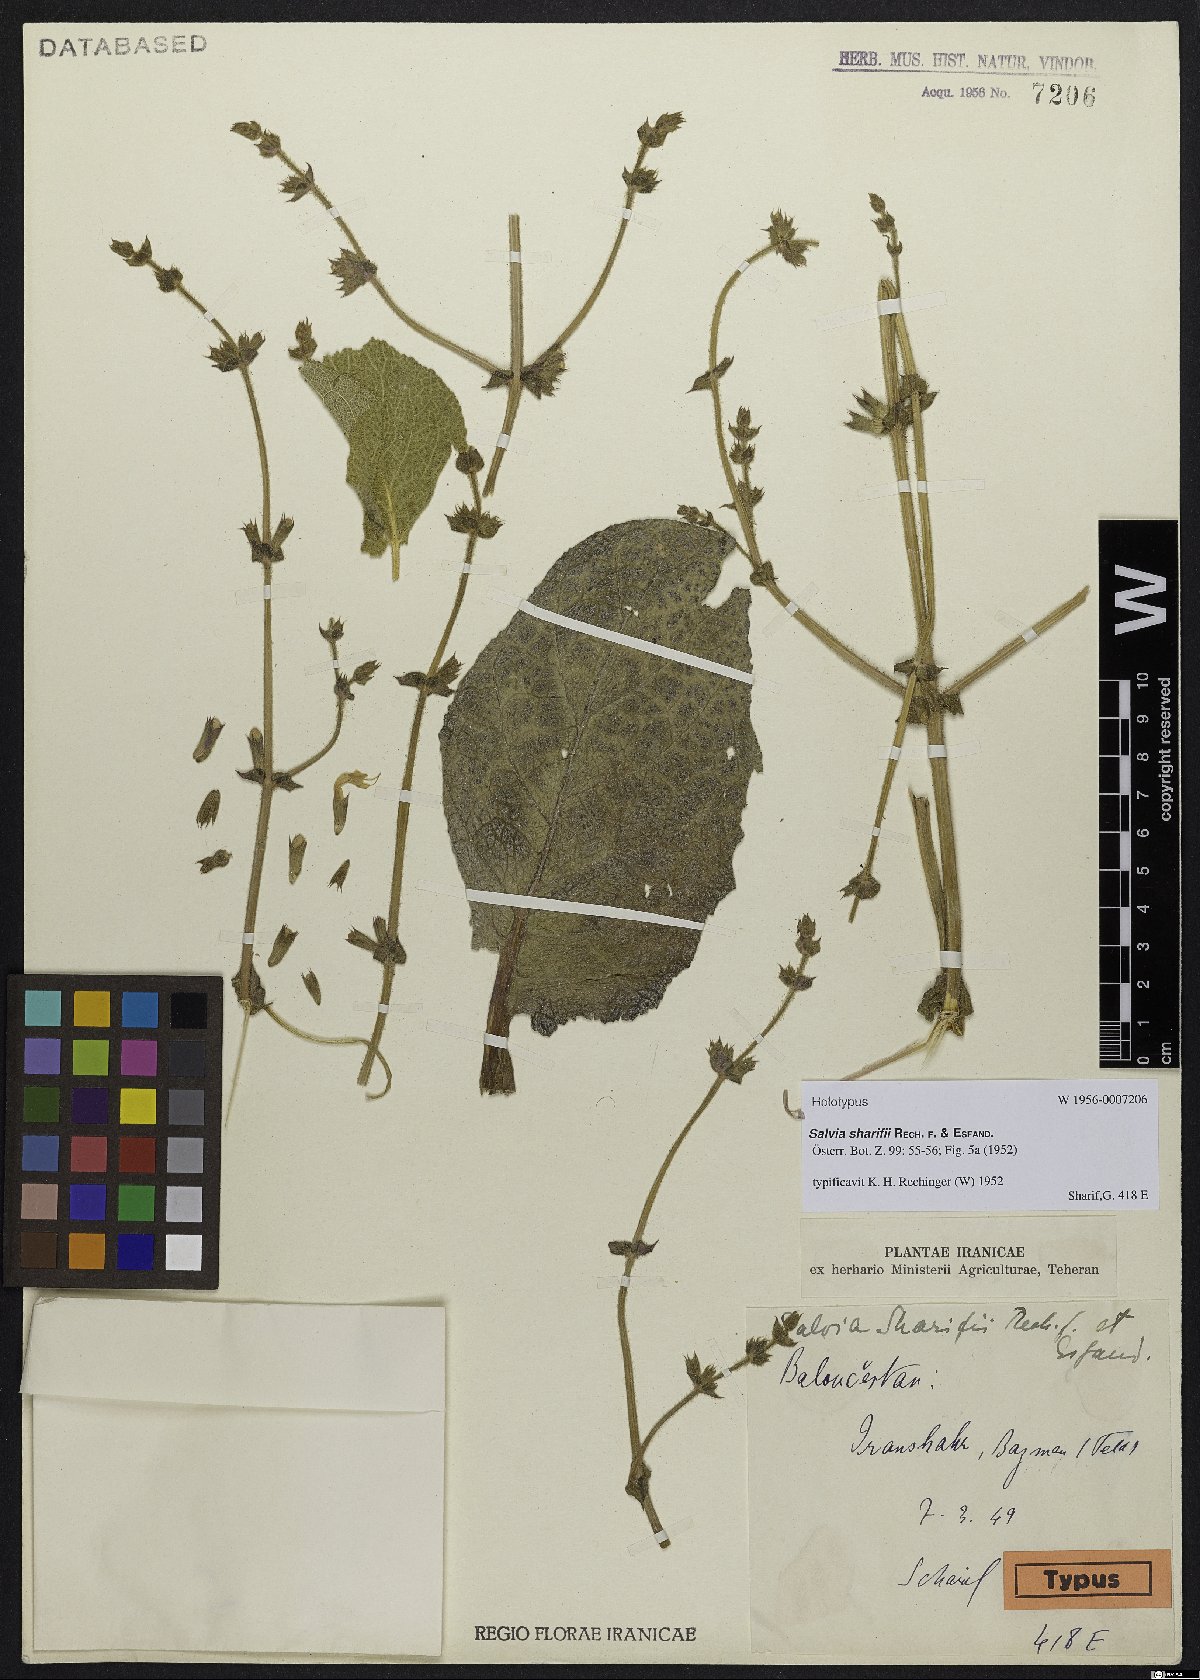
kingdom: Plantae
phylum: Tracheophyta
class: Magnoliopsida
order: Lamiales
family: Lamiaceae
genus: Salvia
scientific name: Salvia sharifii
